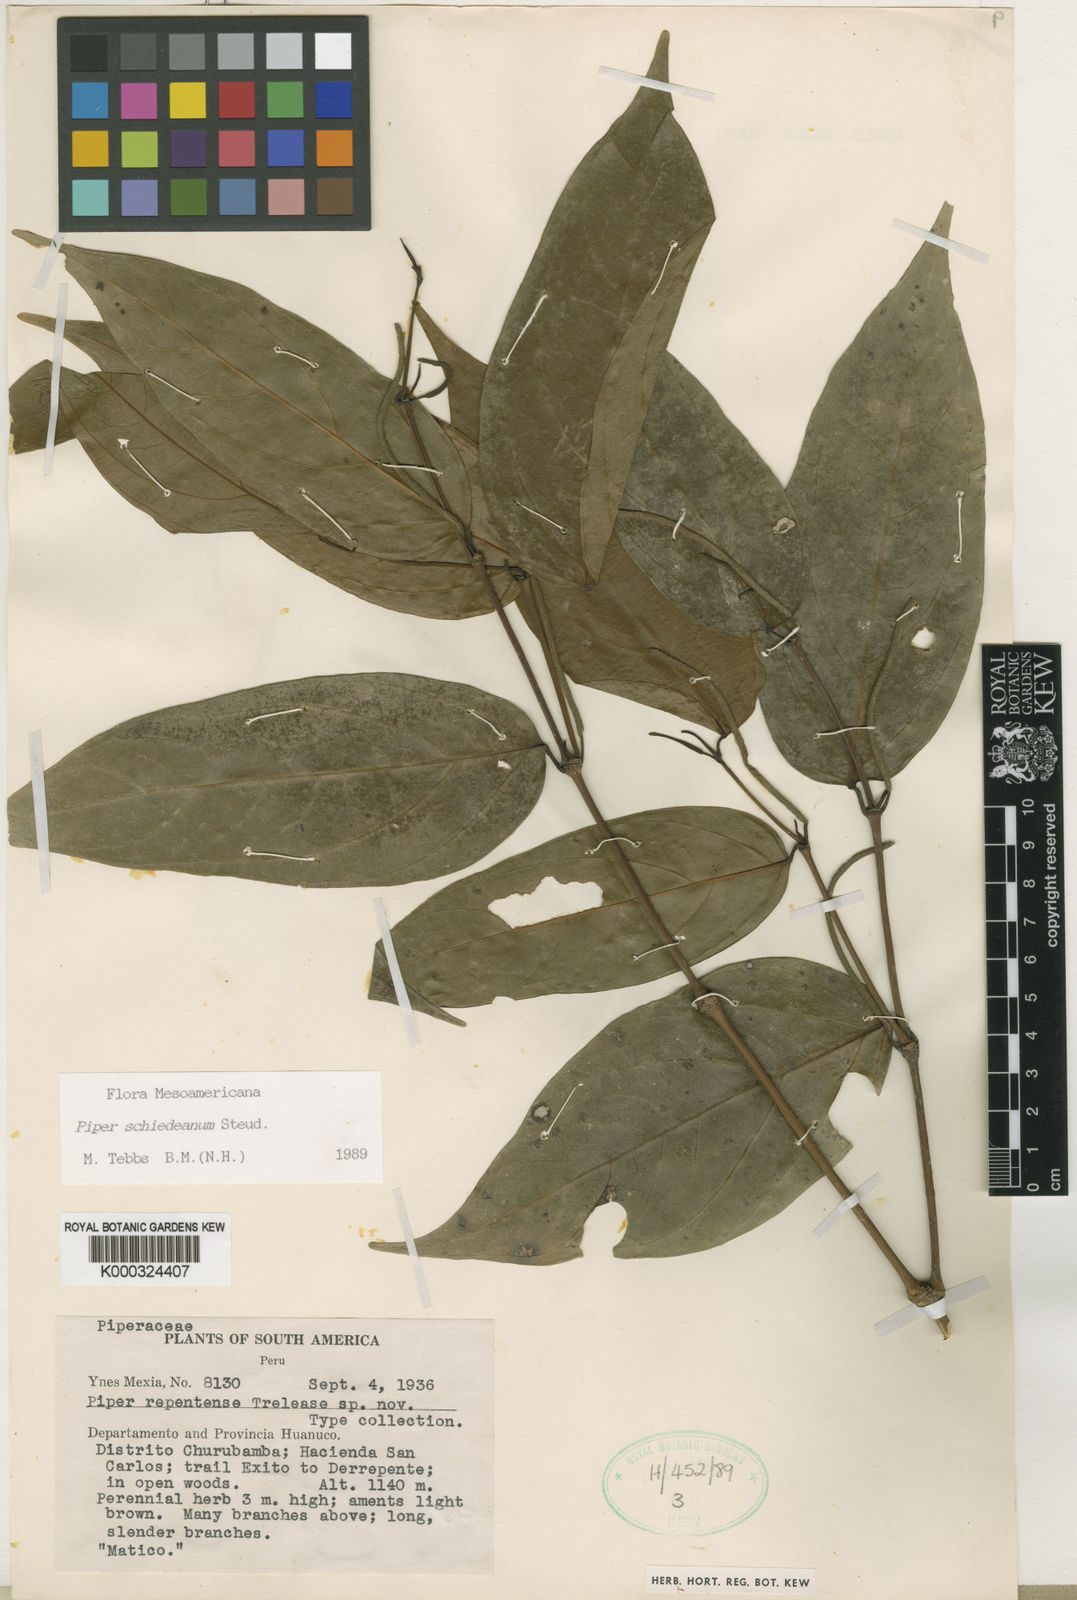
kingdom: Plantae
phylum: Tracheophyta
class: Magnoliopsida
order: Piperales
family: Piperaceae
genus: Piper
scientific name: Piper schiedeanum
